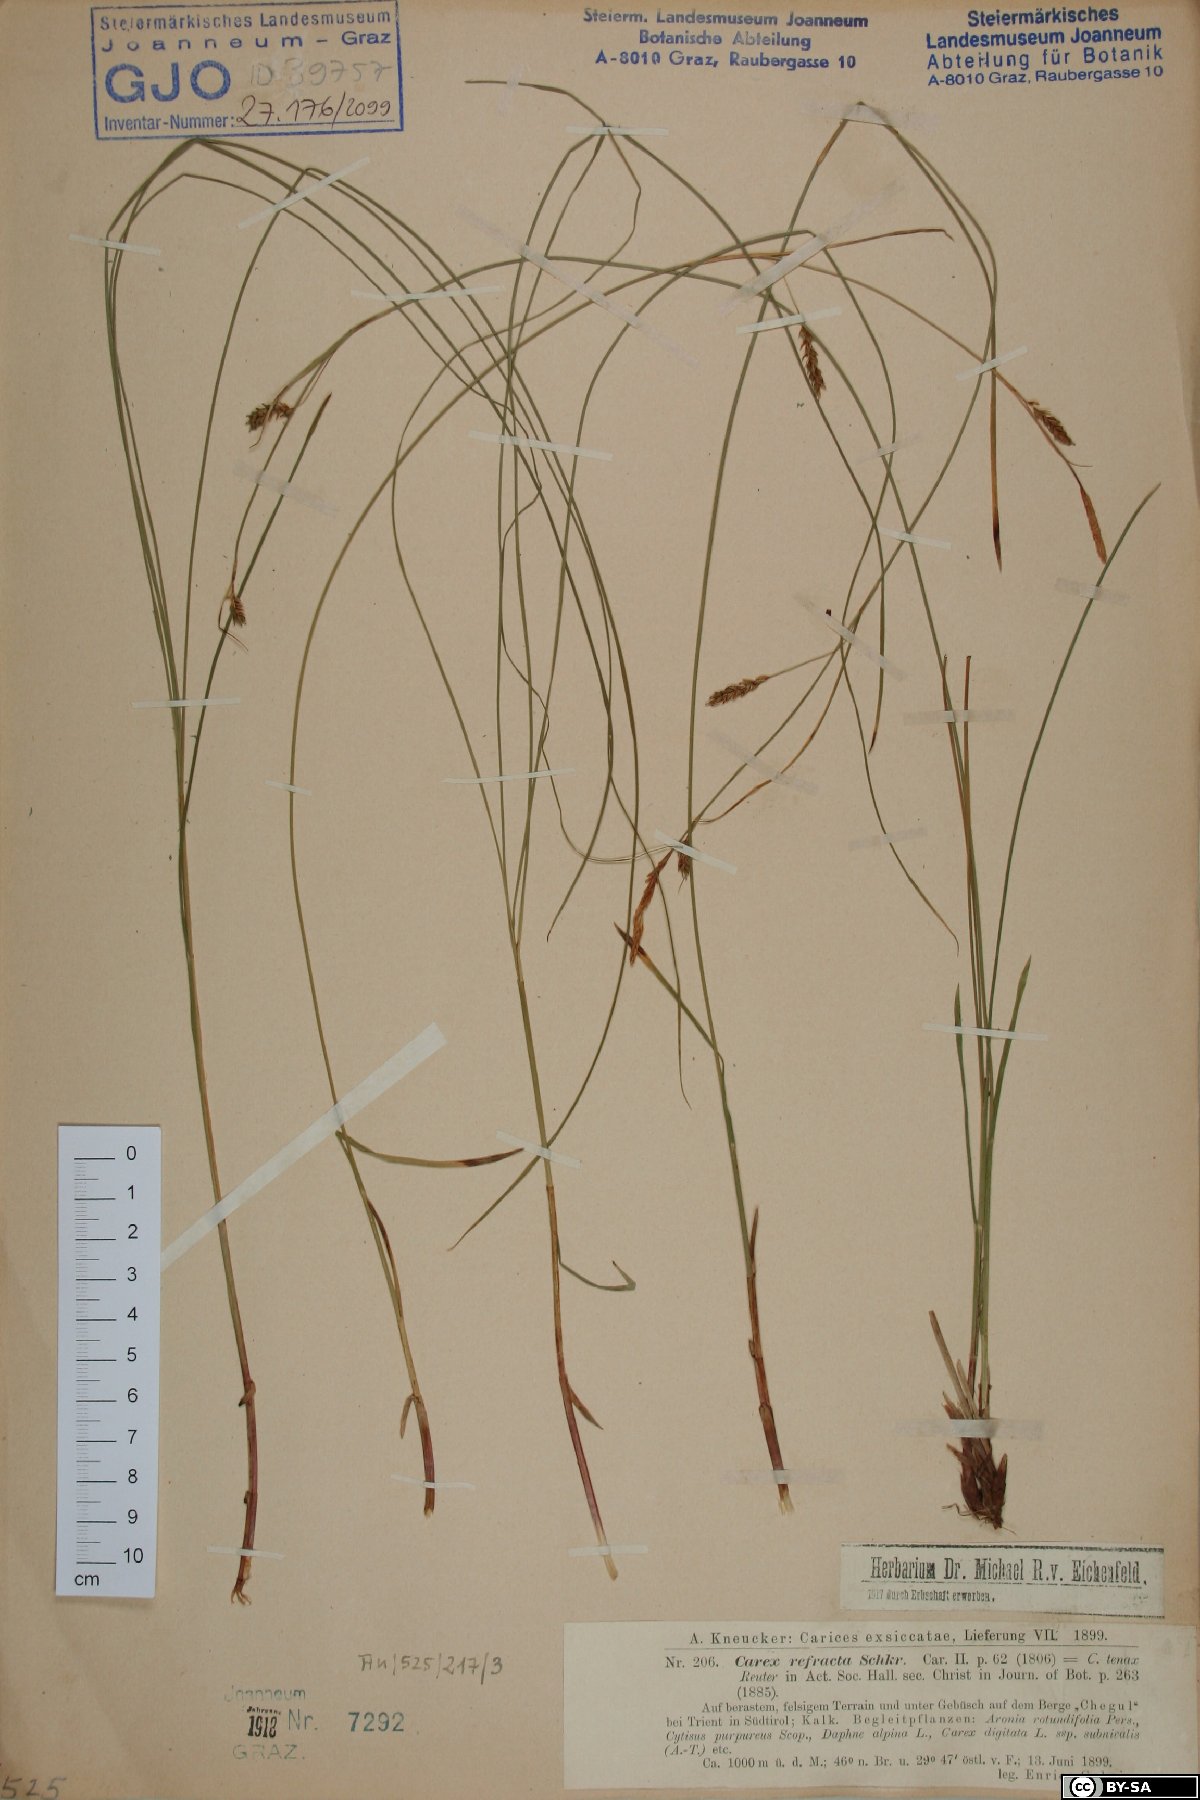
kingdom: Plantae
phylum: Tracheophyta
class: Liliopsida
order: Poales
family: Cyperaceae
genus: Carex
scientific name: Carex rariflora
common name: Loose-flowered alpine sedge
